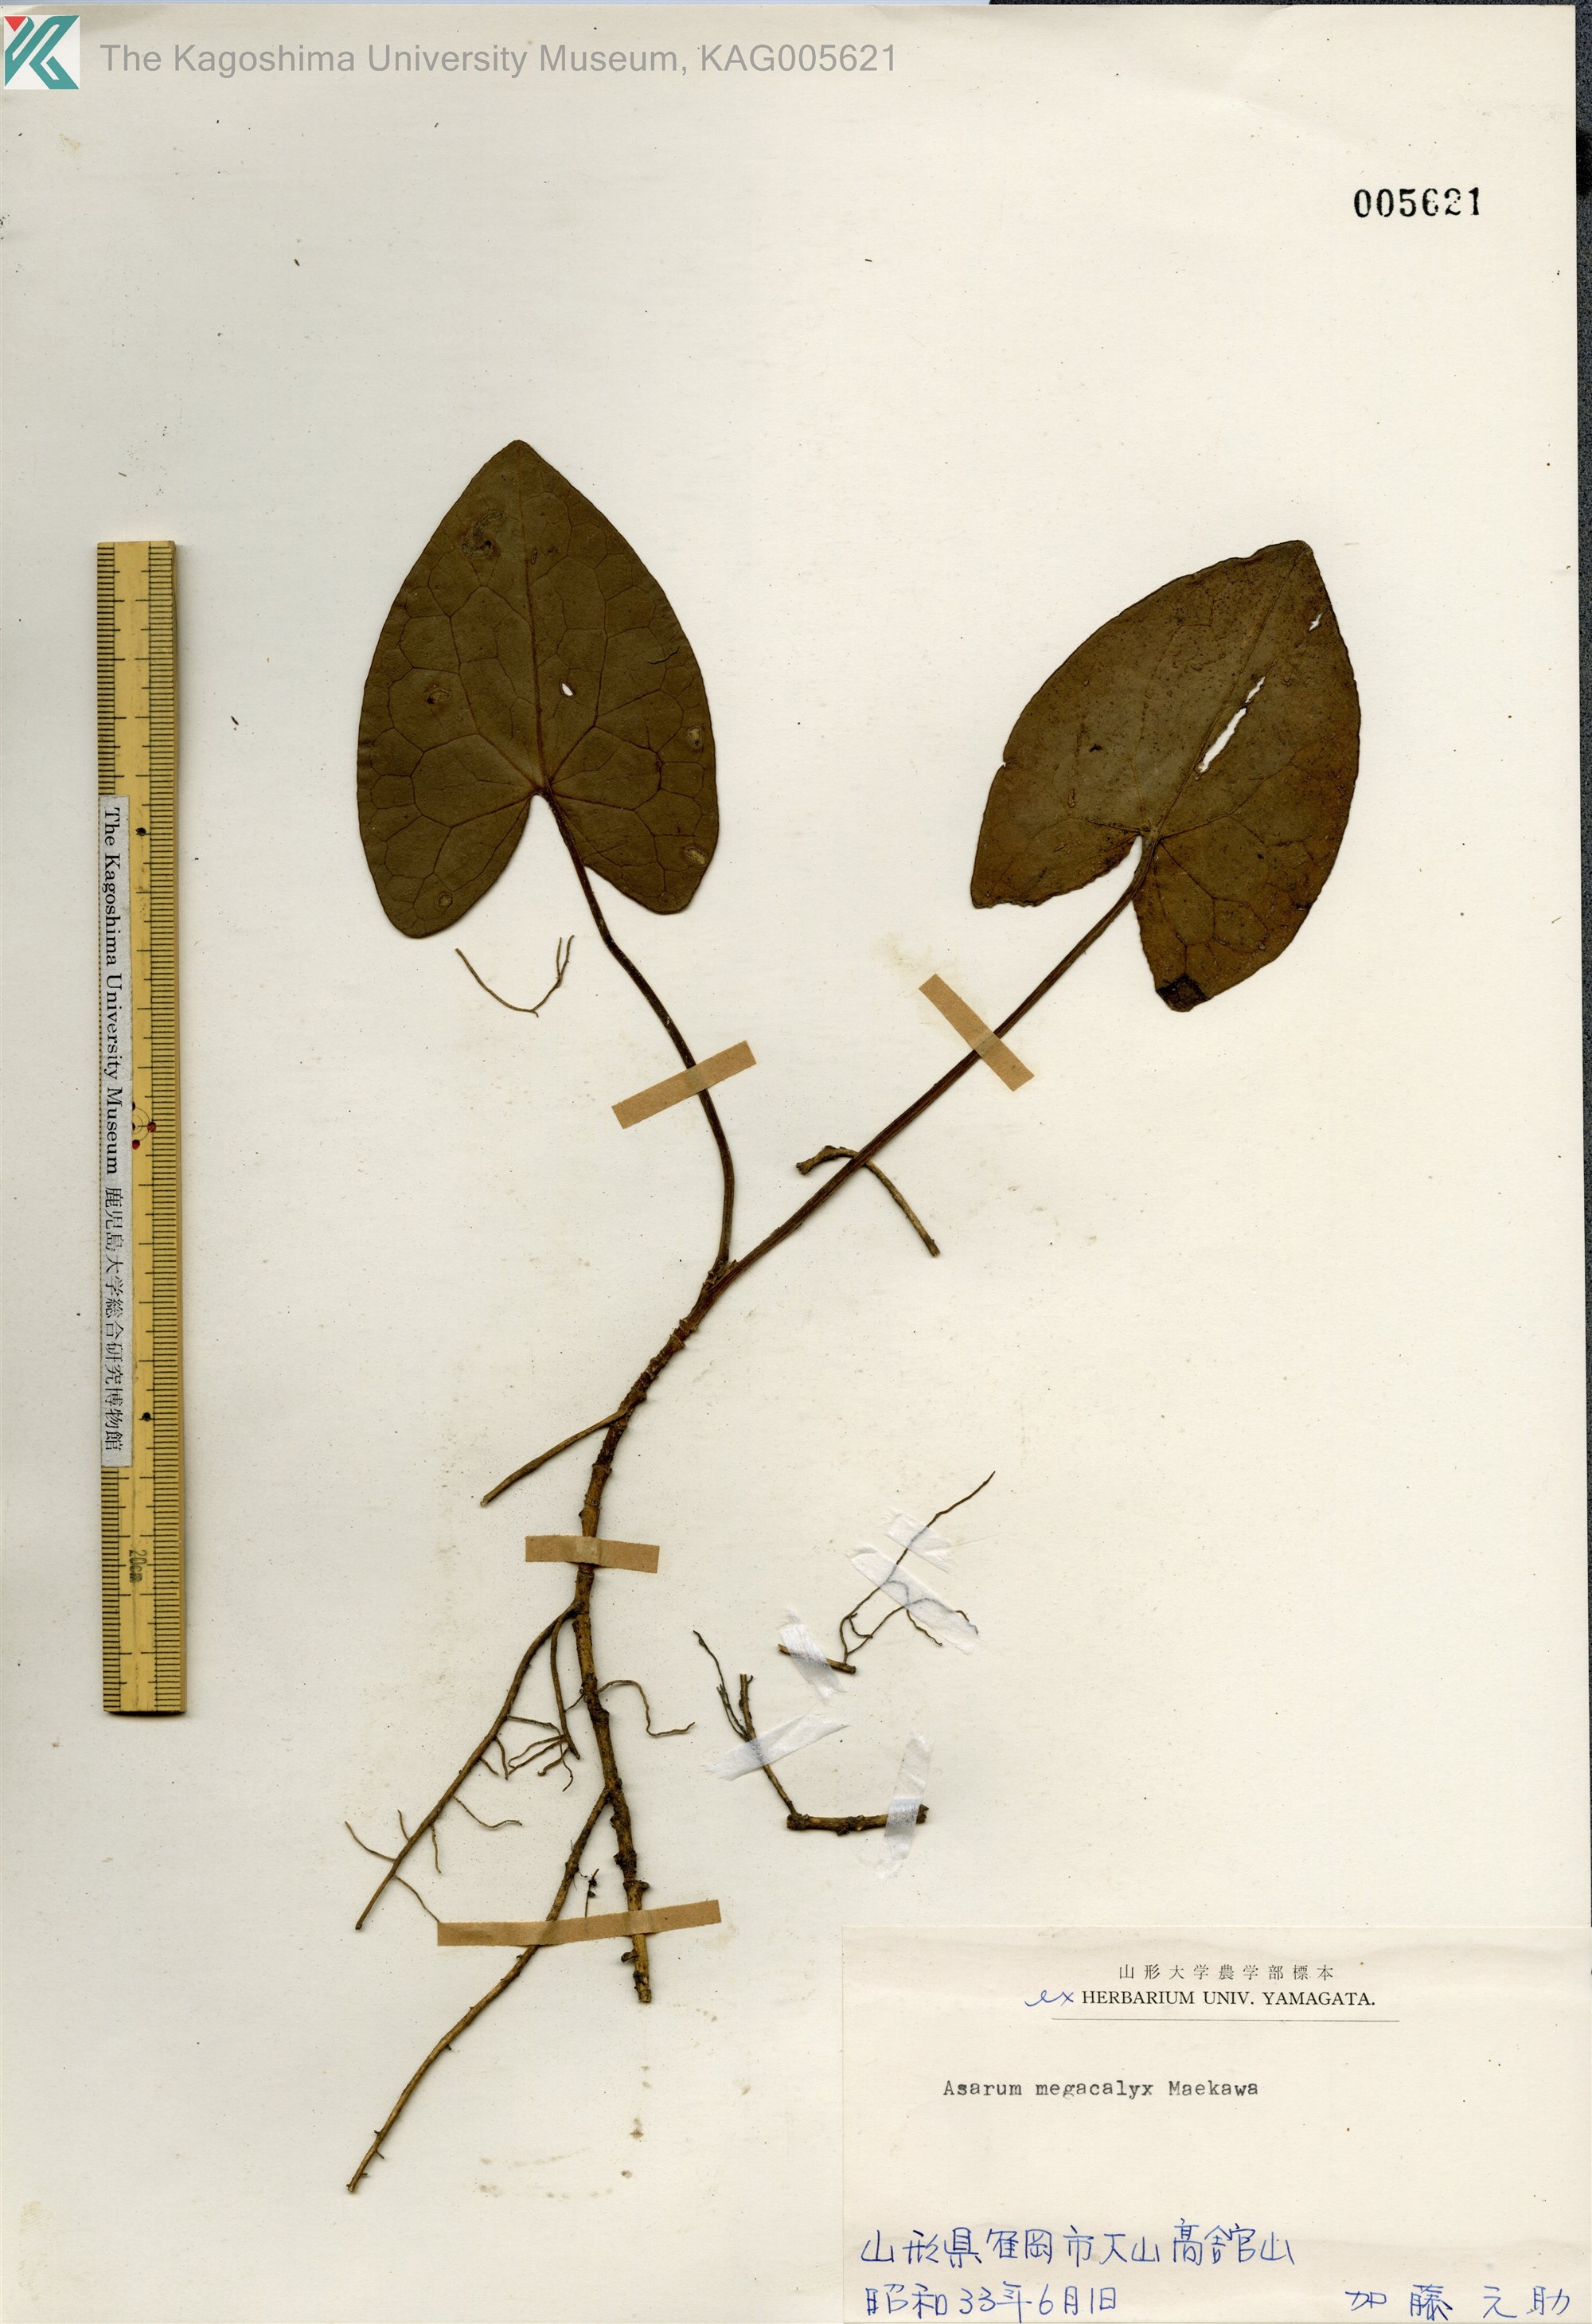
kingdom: Plantae
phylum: Tracheophyta
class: Magnoliopsida
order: Piperales
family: Aristolochiaceae
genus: Asarum
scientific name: Asarum megacalyx
